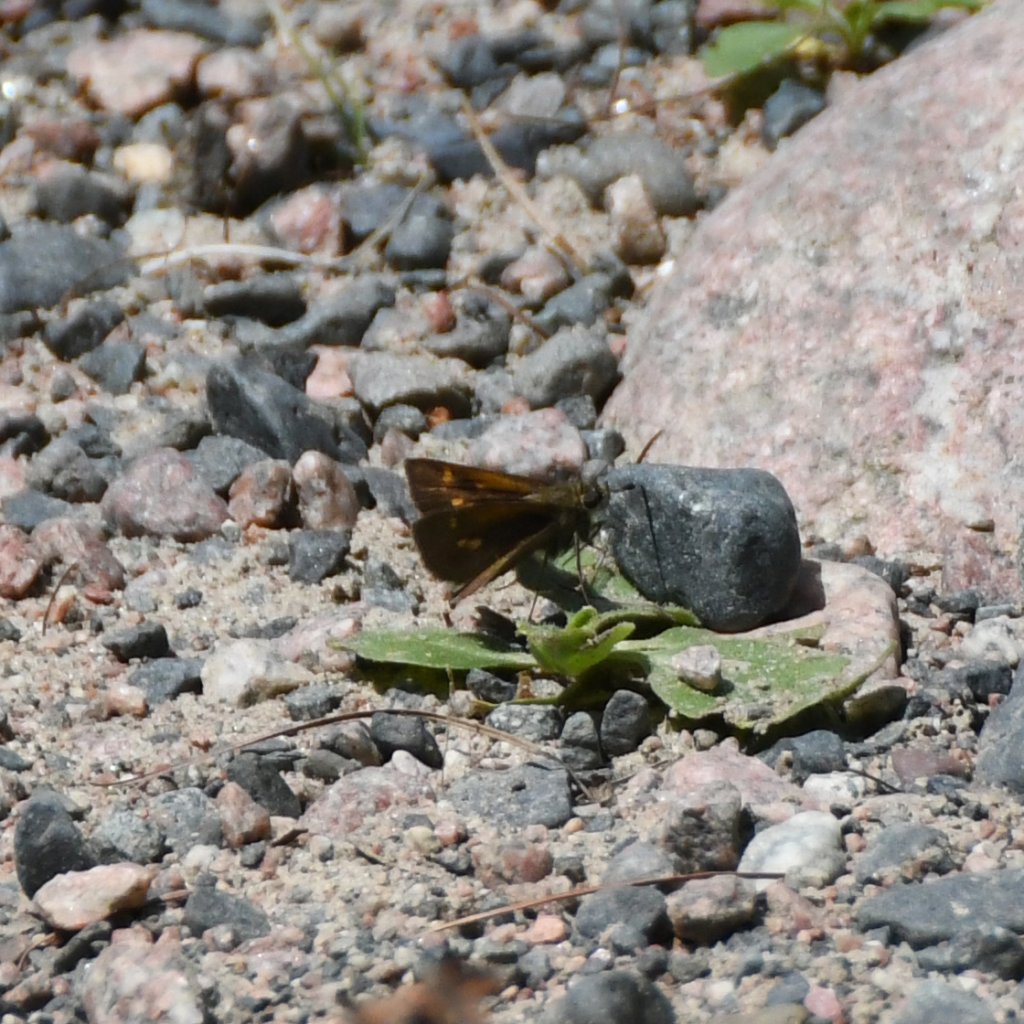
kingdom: Animalia
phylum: Arthropoda
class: Insecta
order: Lepidoptera
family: Hesperiidae
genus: Polites
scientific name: Polites themistocles
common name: Tawny-edged Skipper
